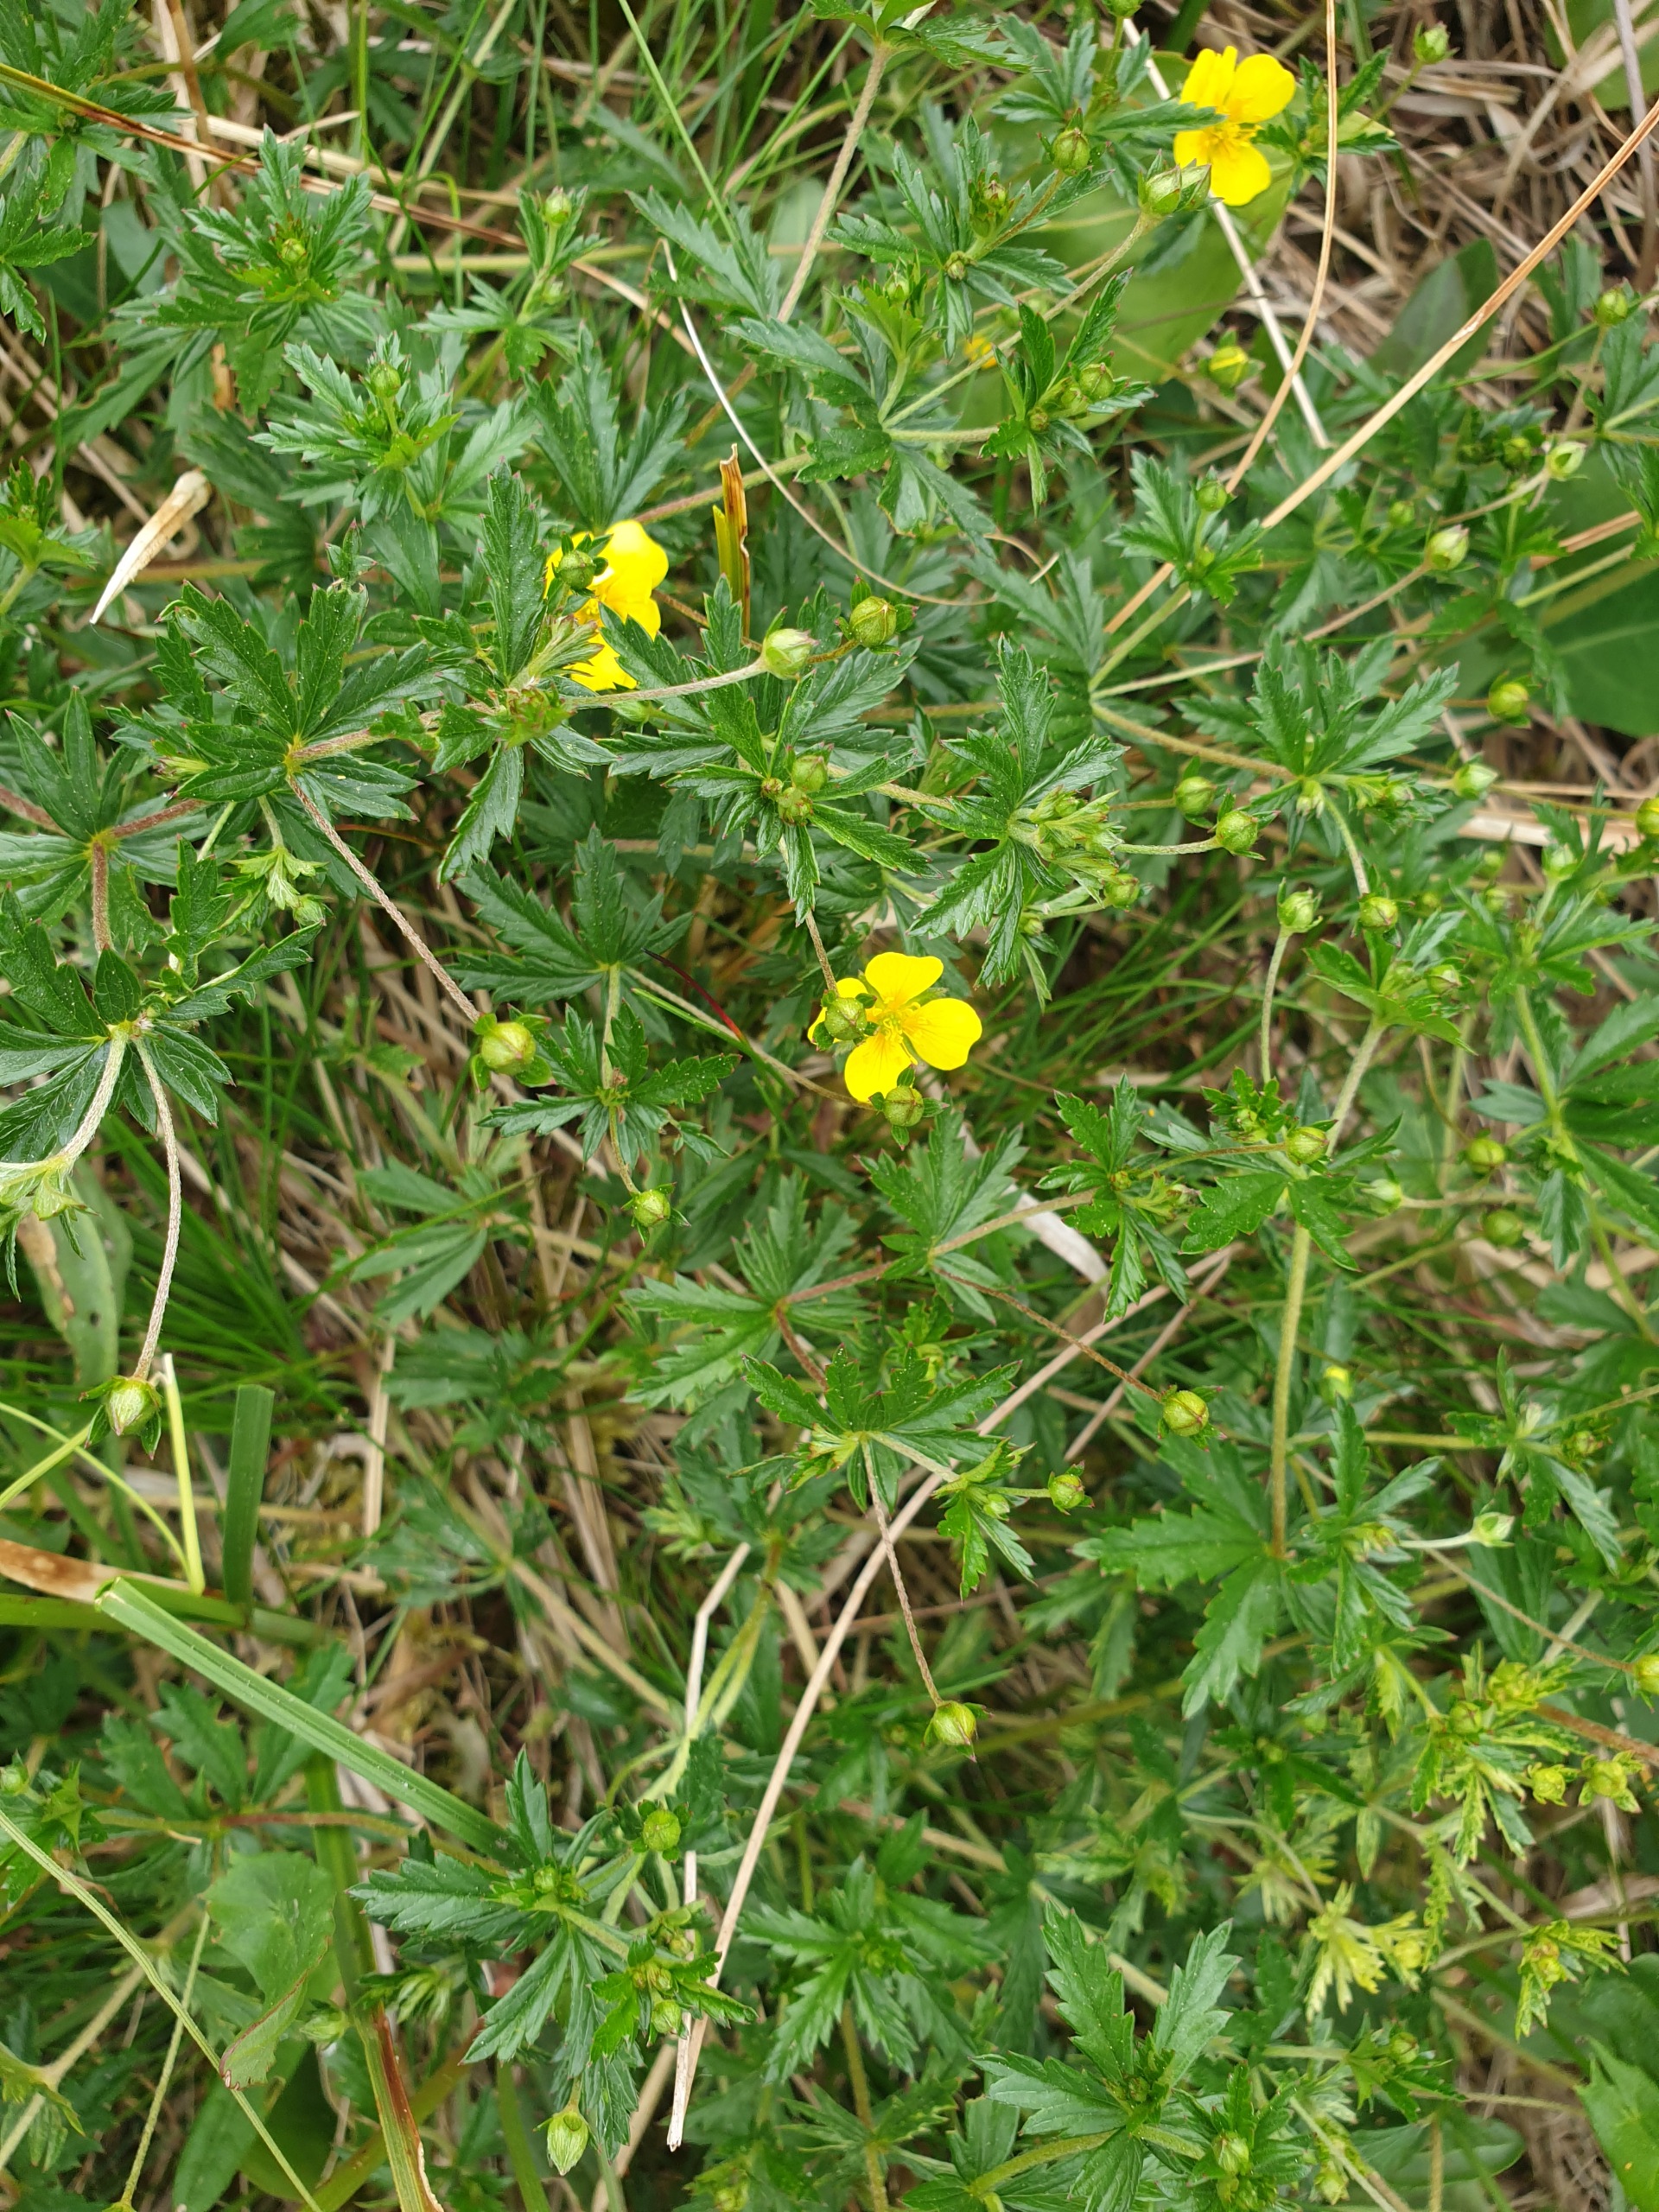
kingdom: Plantae
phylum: Tracheophyta
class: Magnoliopsida
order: Rosales
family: Rosaceae
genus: Potentilla
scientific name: Potentilla erecta
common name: Tormentil
